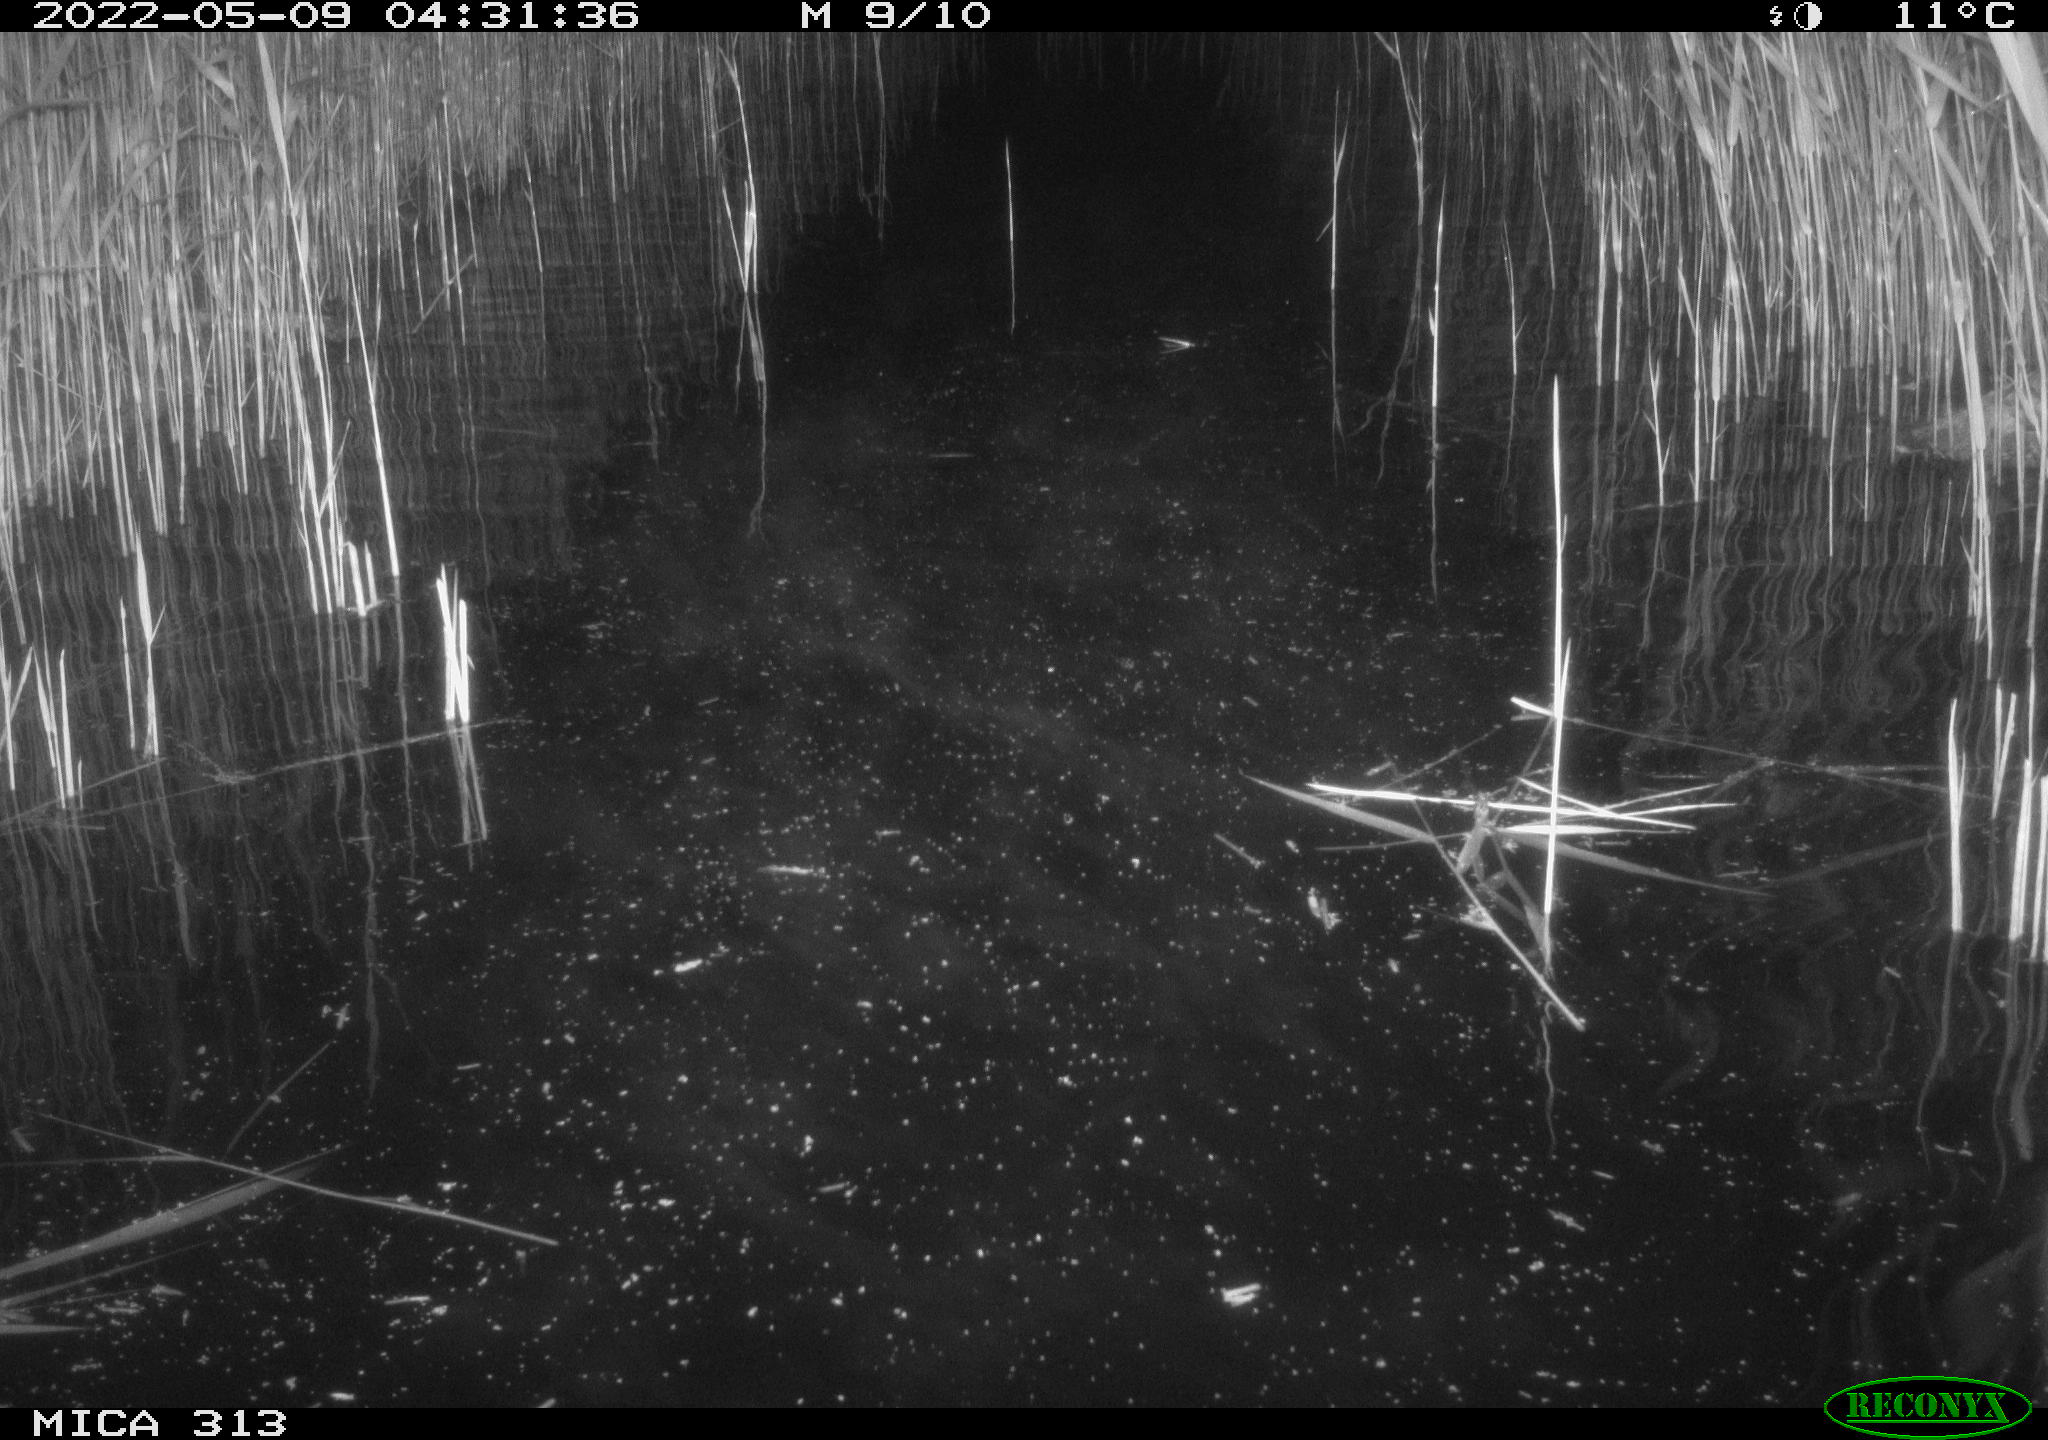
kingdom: Animalia
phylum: Chordata
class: Aves
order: Anseriformes
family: Anatidae
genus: Anas
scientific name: Anas platyrhynchos
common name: Mallard
